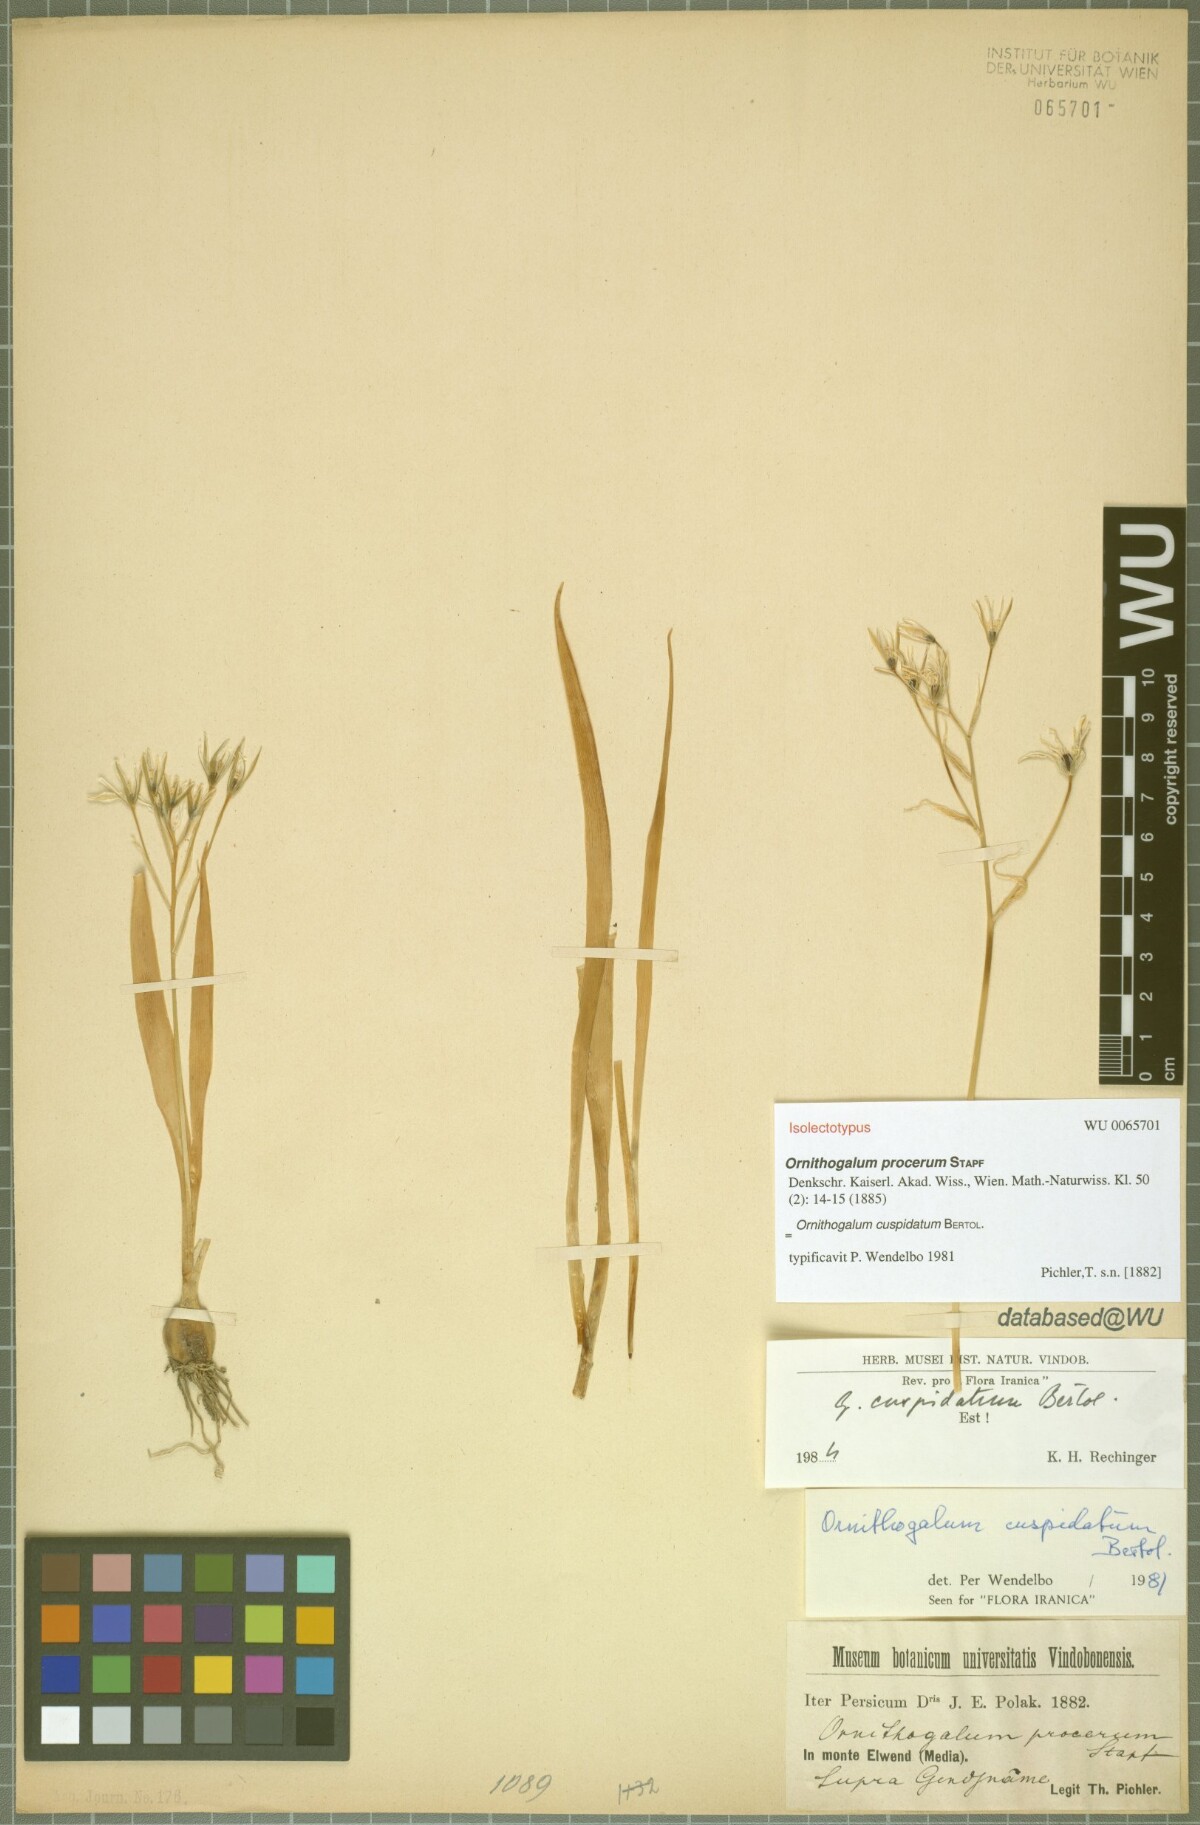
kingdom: Plantae
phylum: Tracheophyta
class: Liliopsida
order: Asparagales
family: Asparagaceae
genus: Ornithogalum
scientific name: Ornithogalum cuspidatum
